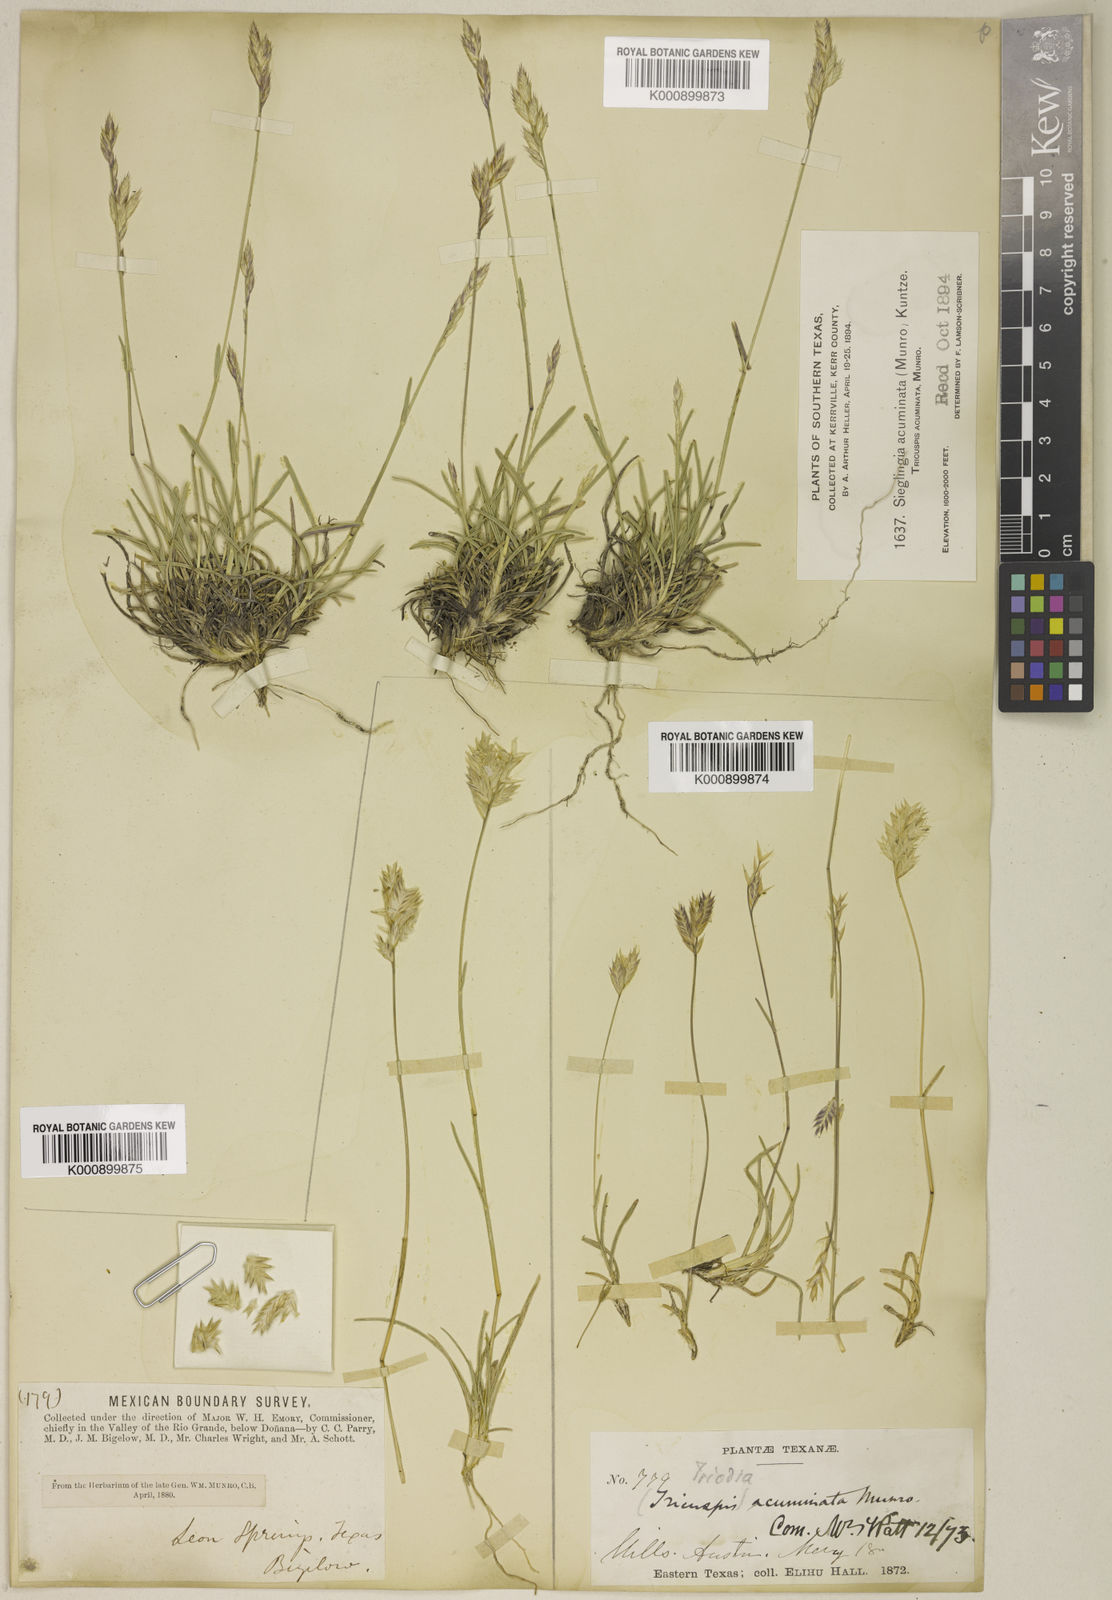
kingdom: Plantae
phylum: Tracheophyta
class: Liliopsida
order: Poales
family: Poaceae
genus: Erioneuron
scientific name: Erioneuron pilosum
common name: Hairy woolly grass
